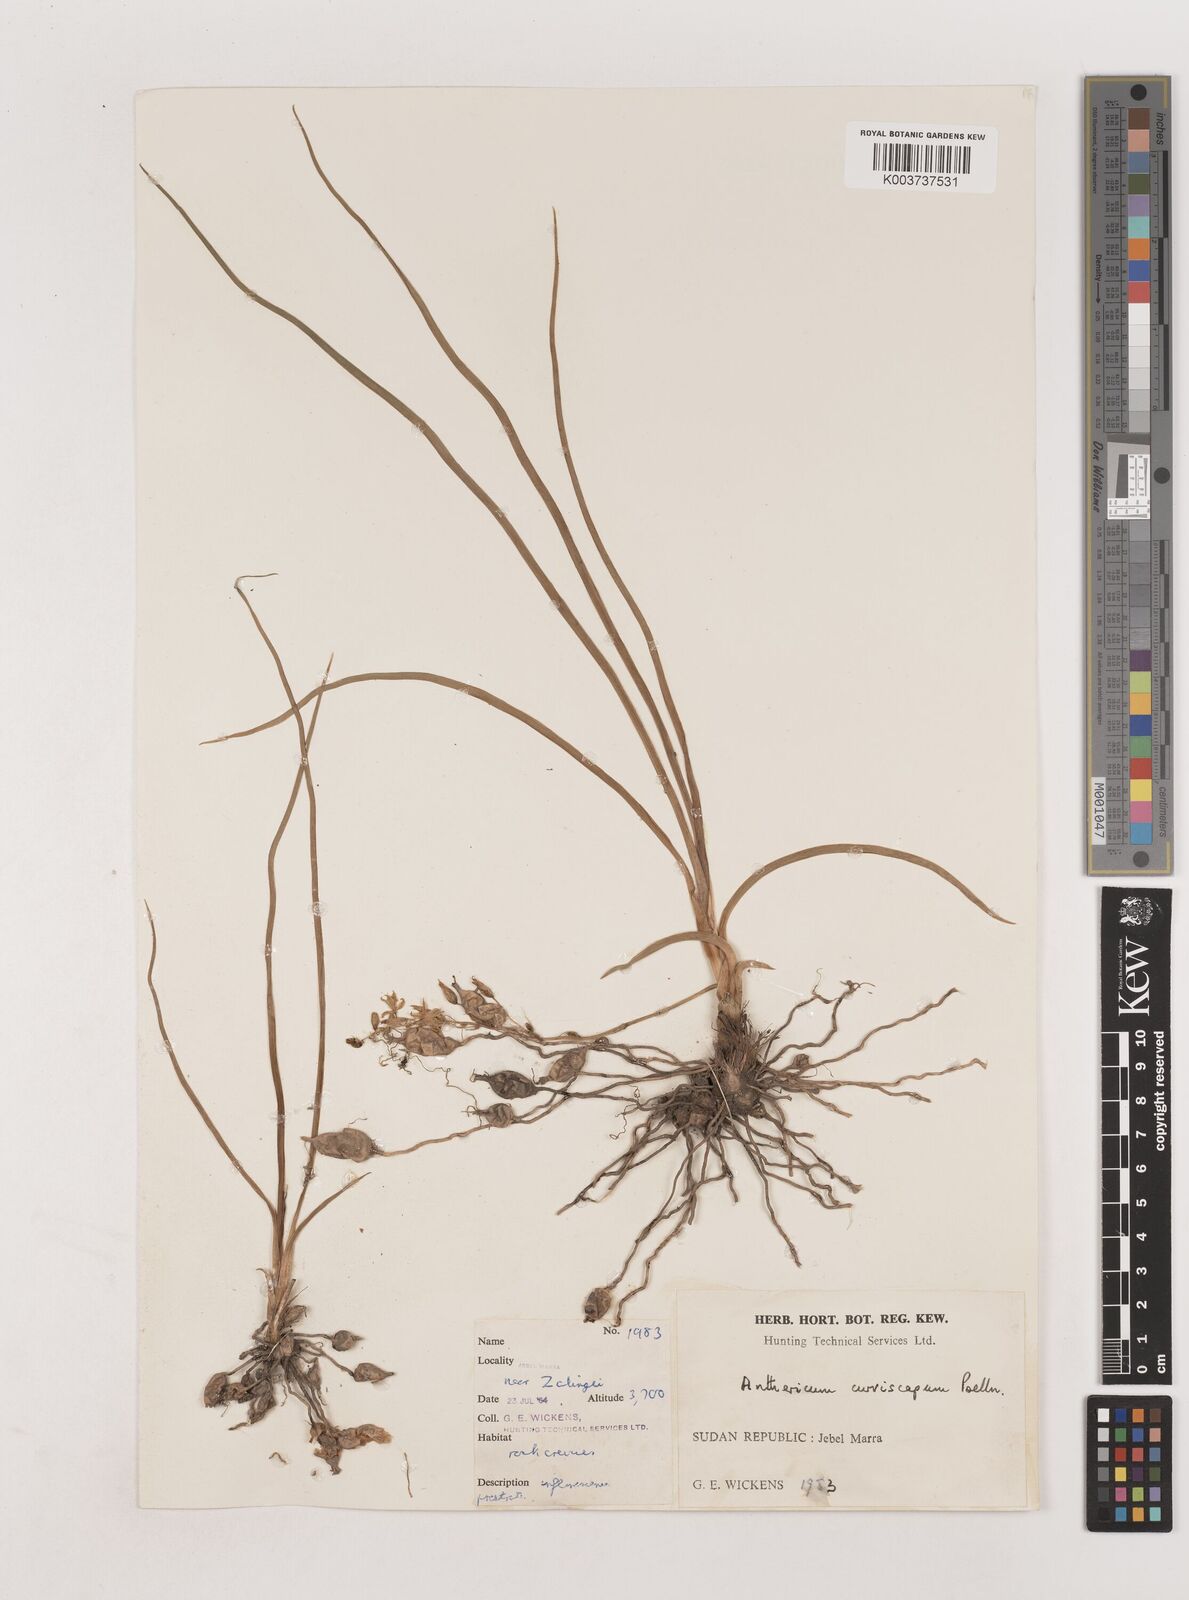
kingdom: Plantae
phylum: Tracheophyta
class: Liliopsida
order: Asparagales
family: Asparagaceae
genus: Chlorophytum
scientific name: Chlorophytum
